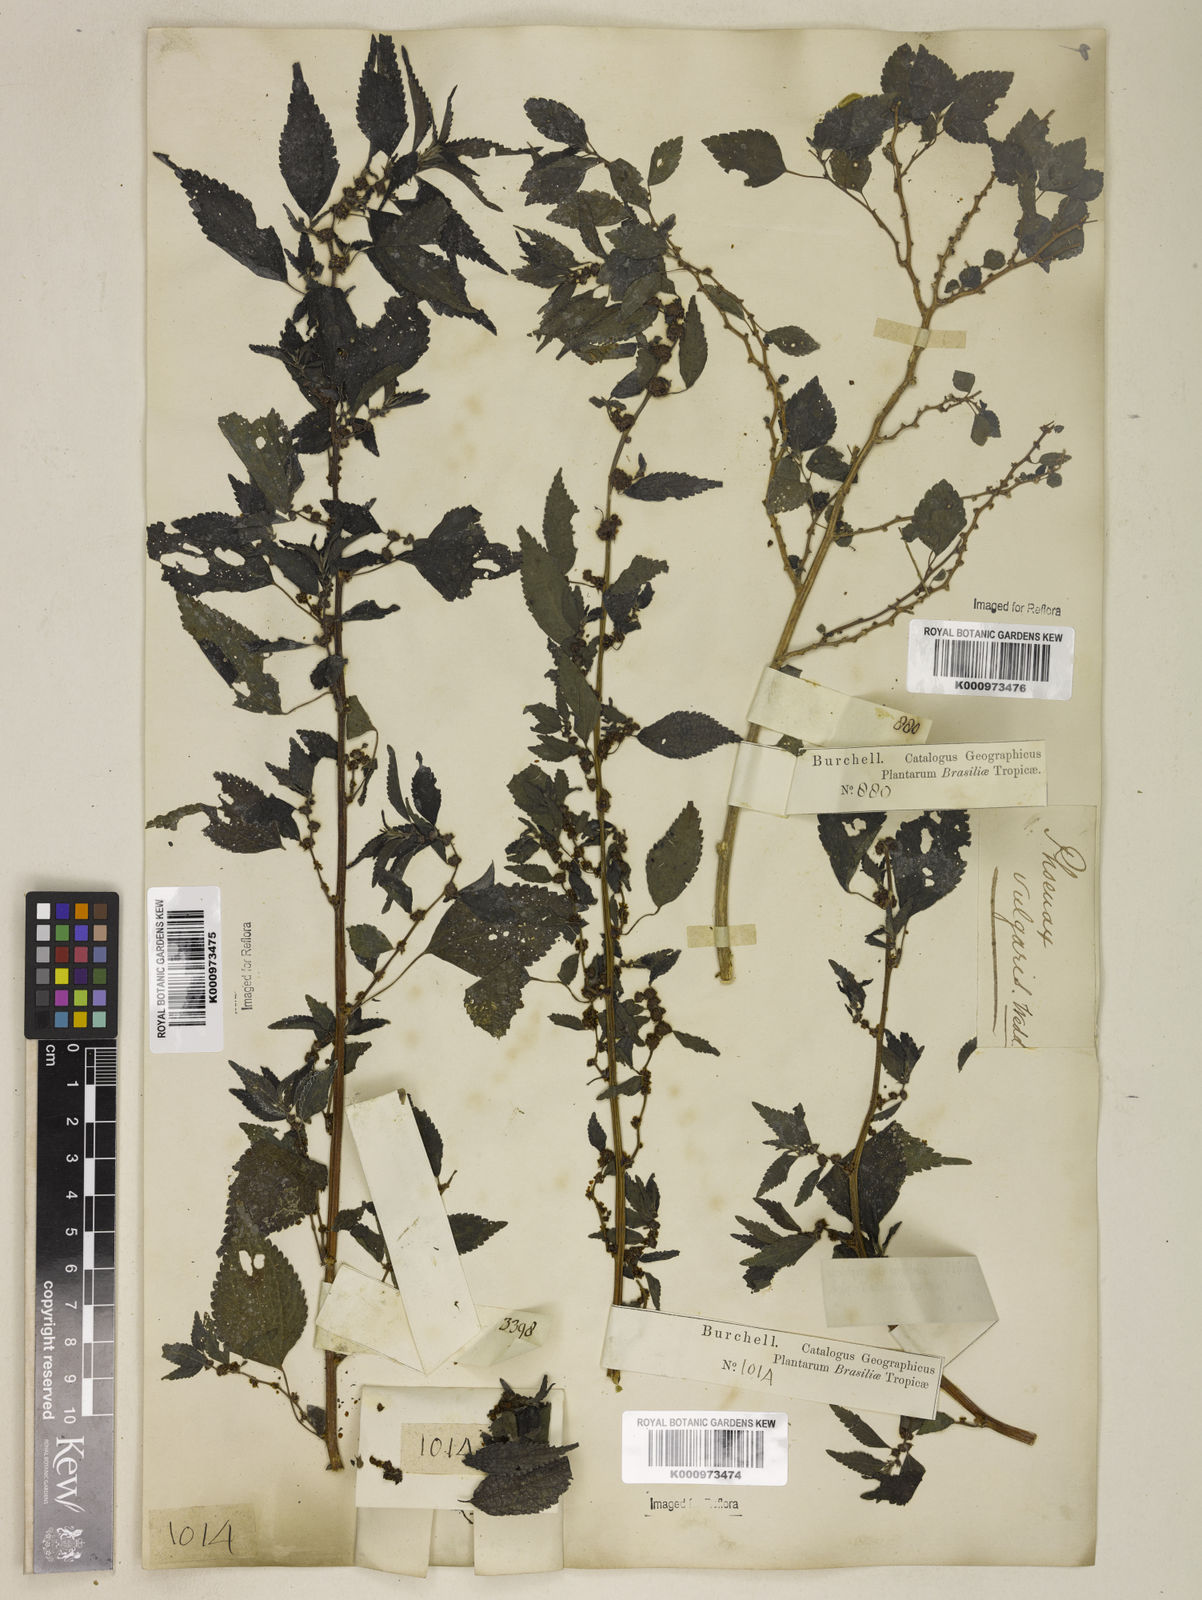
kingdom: Plantae
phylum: Tracheophyta
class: Magnoliopsida
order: Rosales
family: Urticaceae
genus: Phenax
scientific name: Phenax sonneratii
